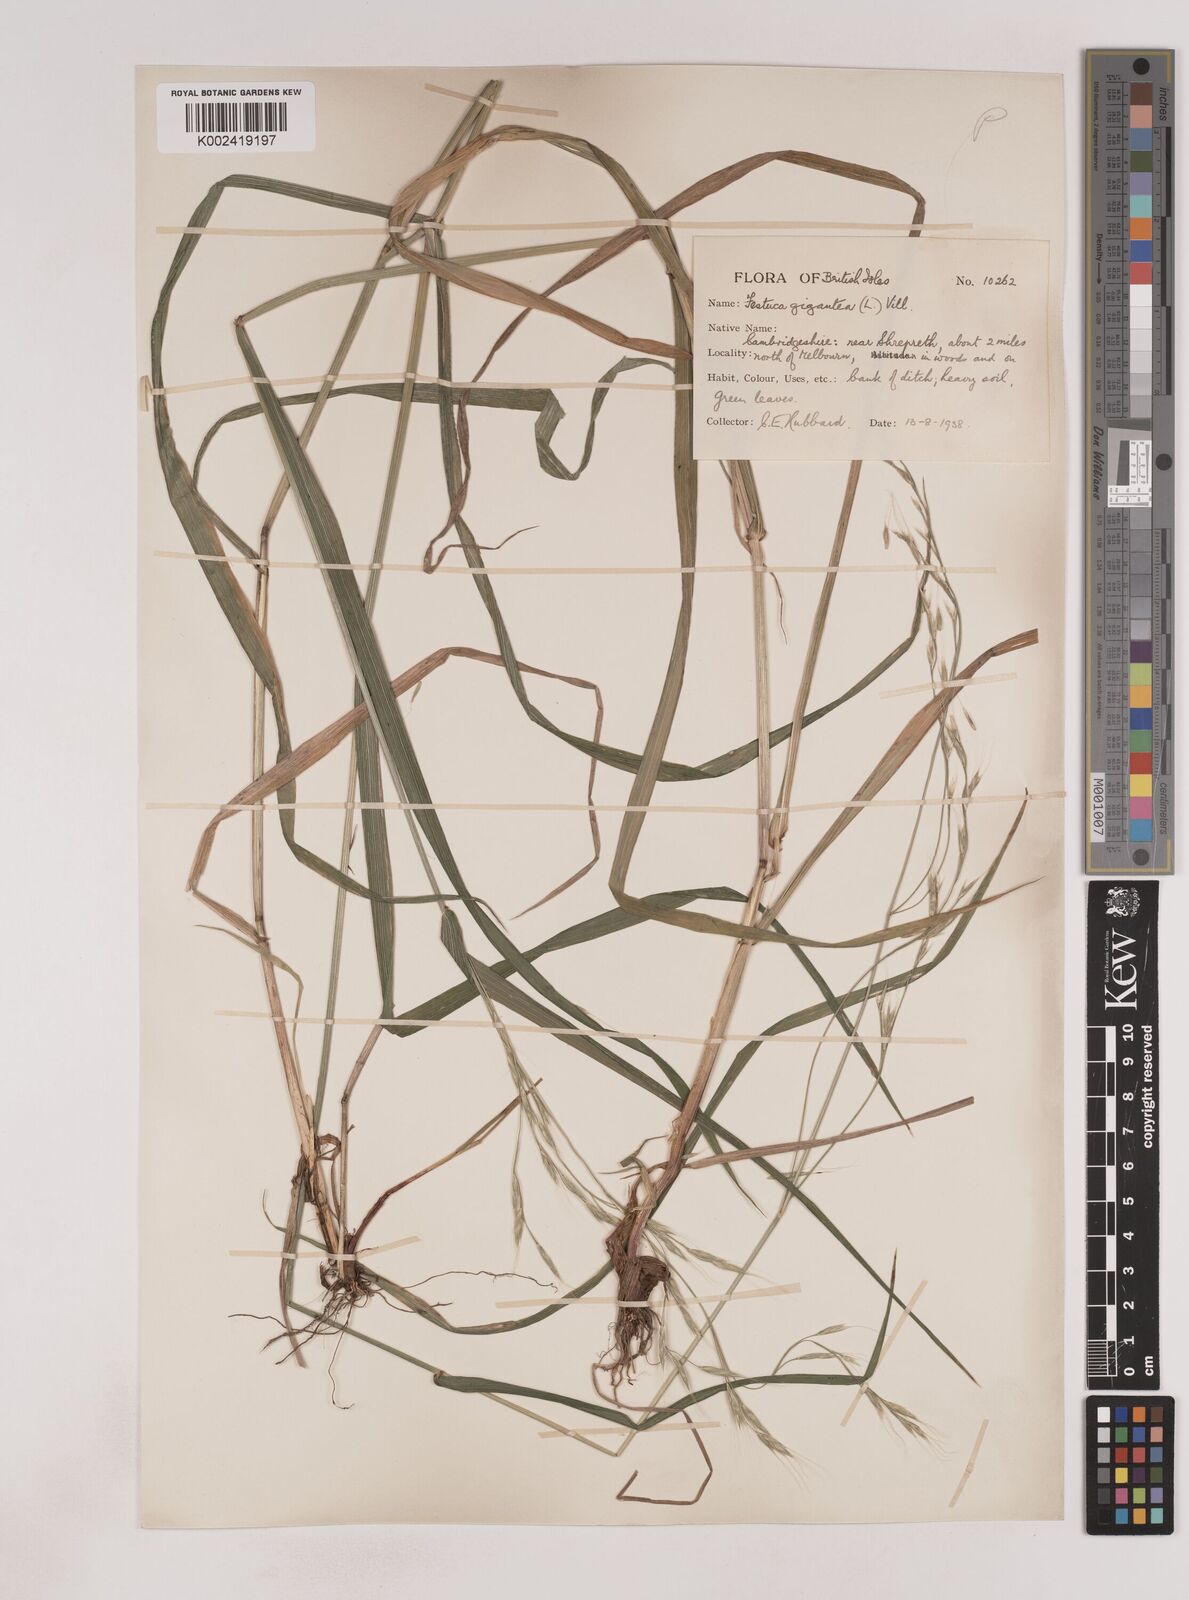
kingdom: Plantae
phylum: Tracheophyta
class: Liliopsida
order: Poales
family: Poaceae
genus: Lolium
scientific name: Lolium giganteum
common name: Giant fescue
